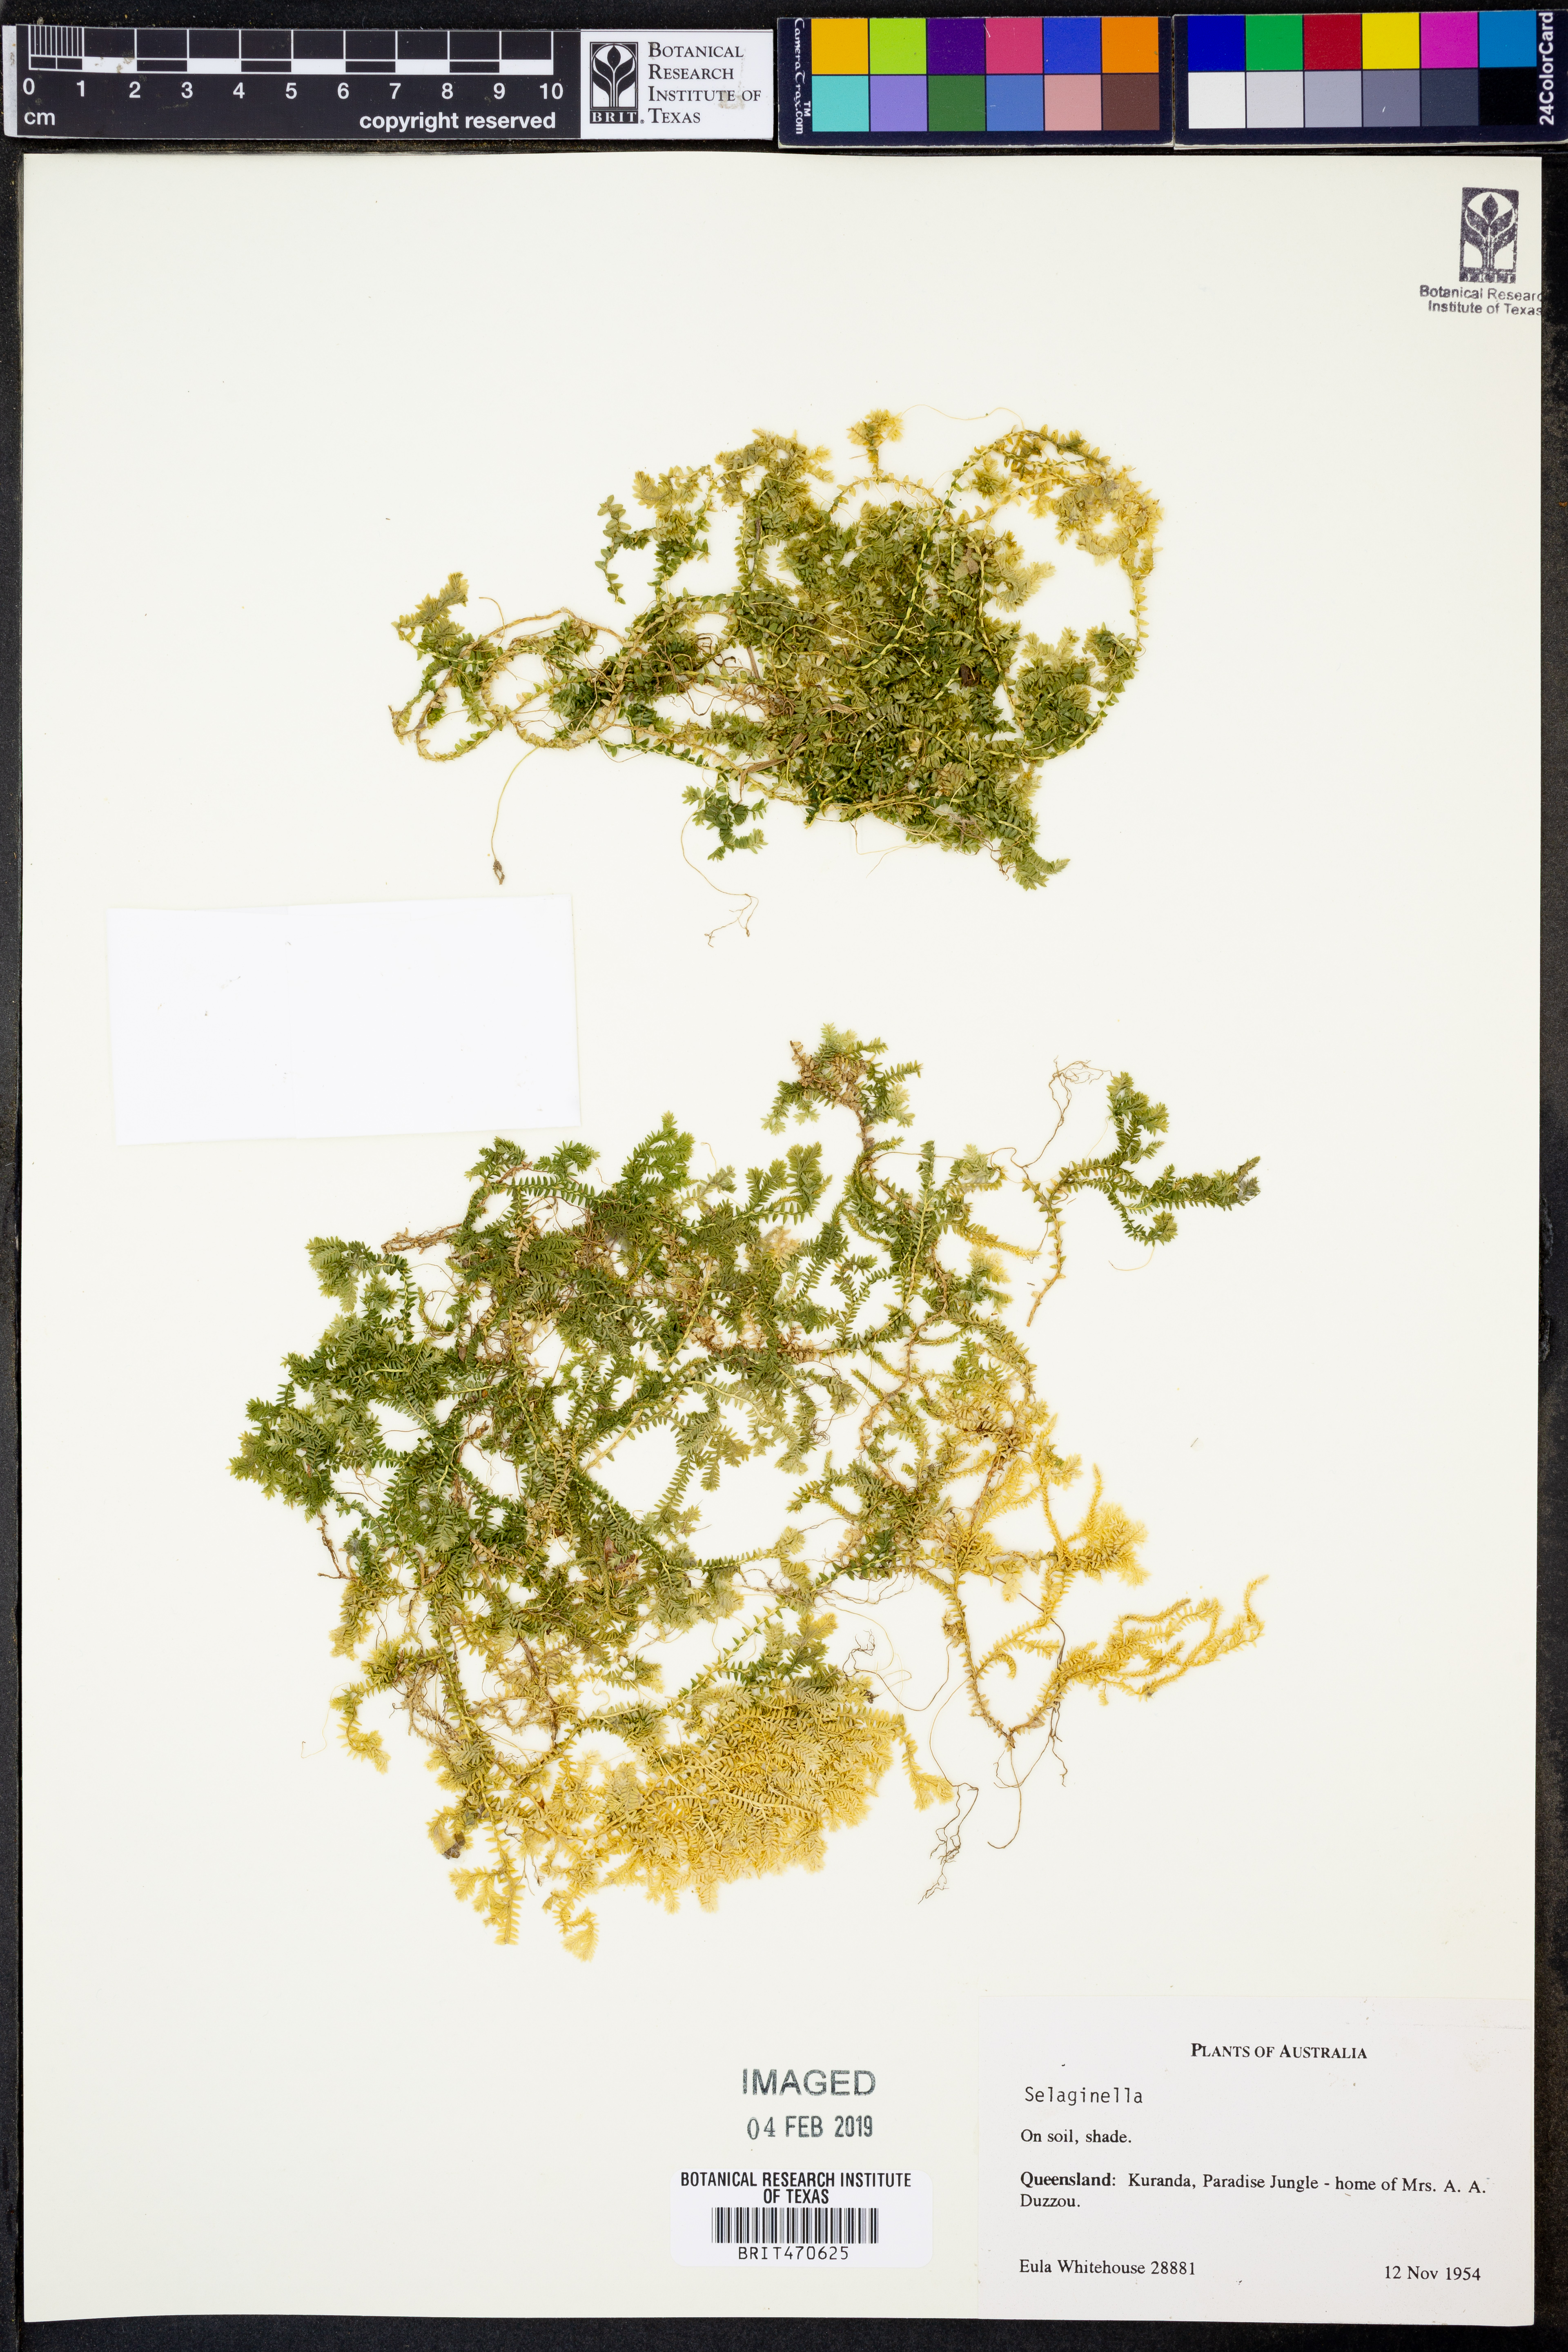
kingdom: Plantae
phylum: Tracheophyta
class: Lycopodiopsida
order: Selaginellales
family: Selaginellaceae
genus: Selaginella
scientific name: Selaginella
